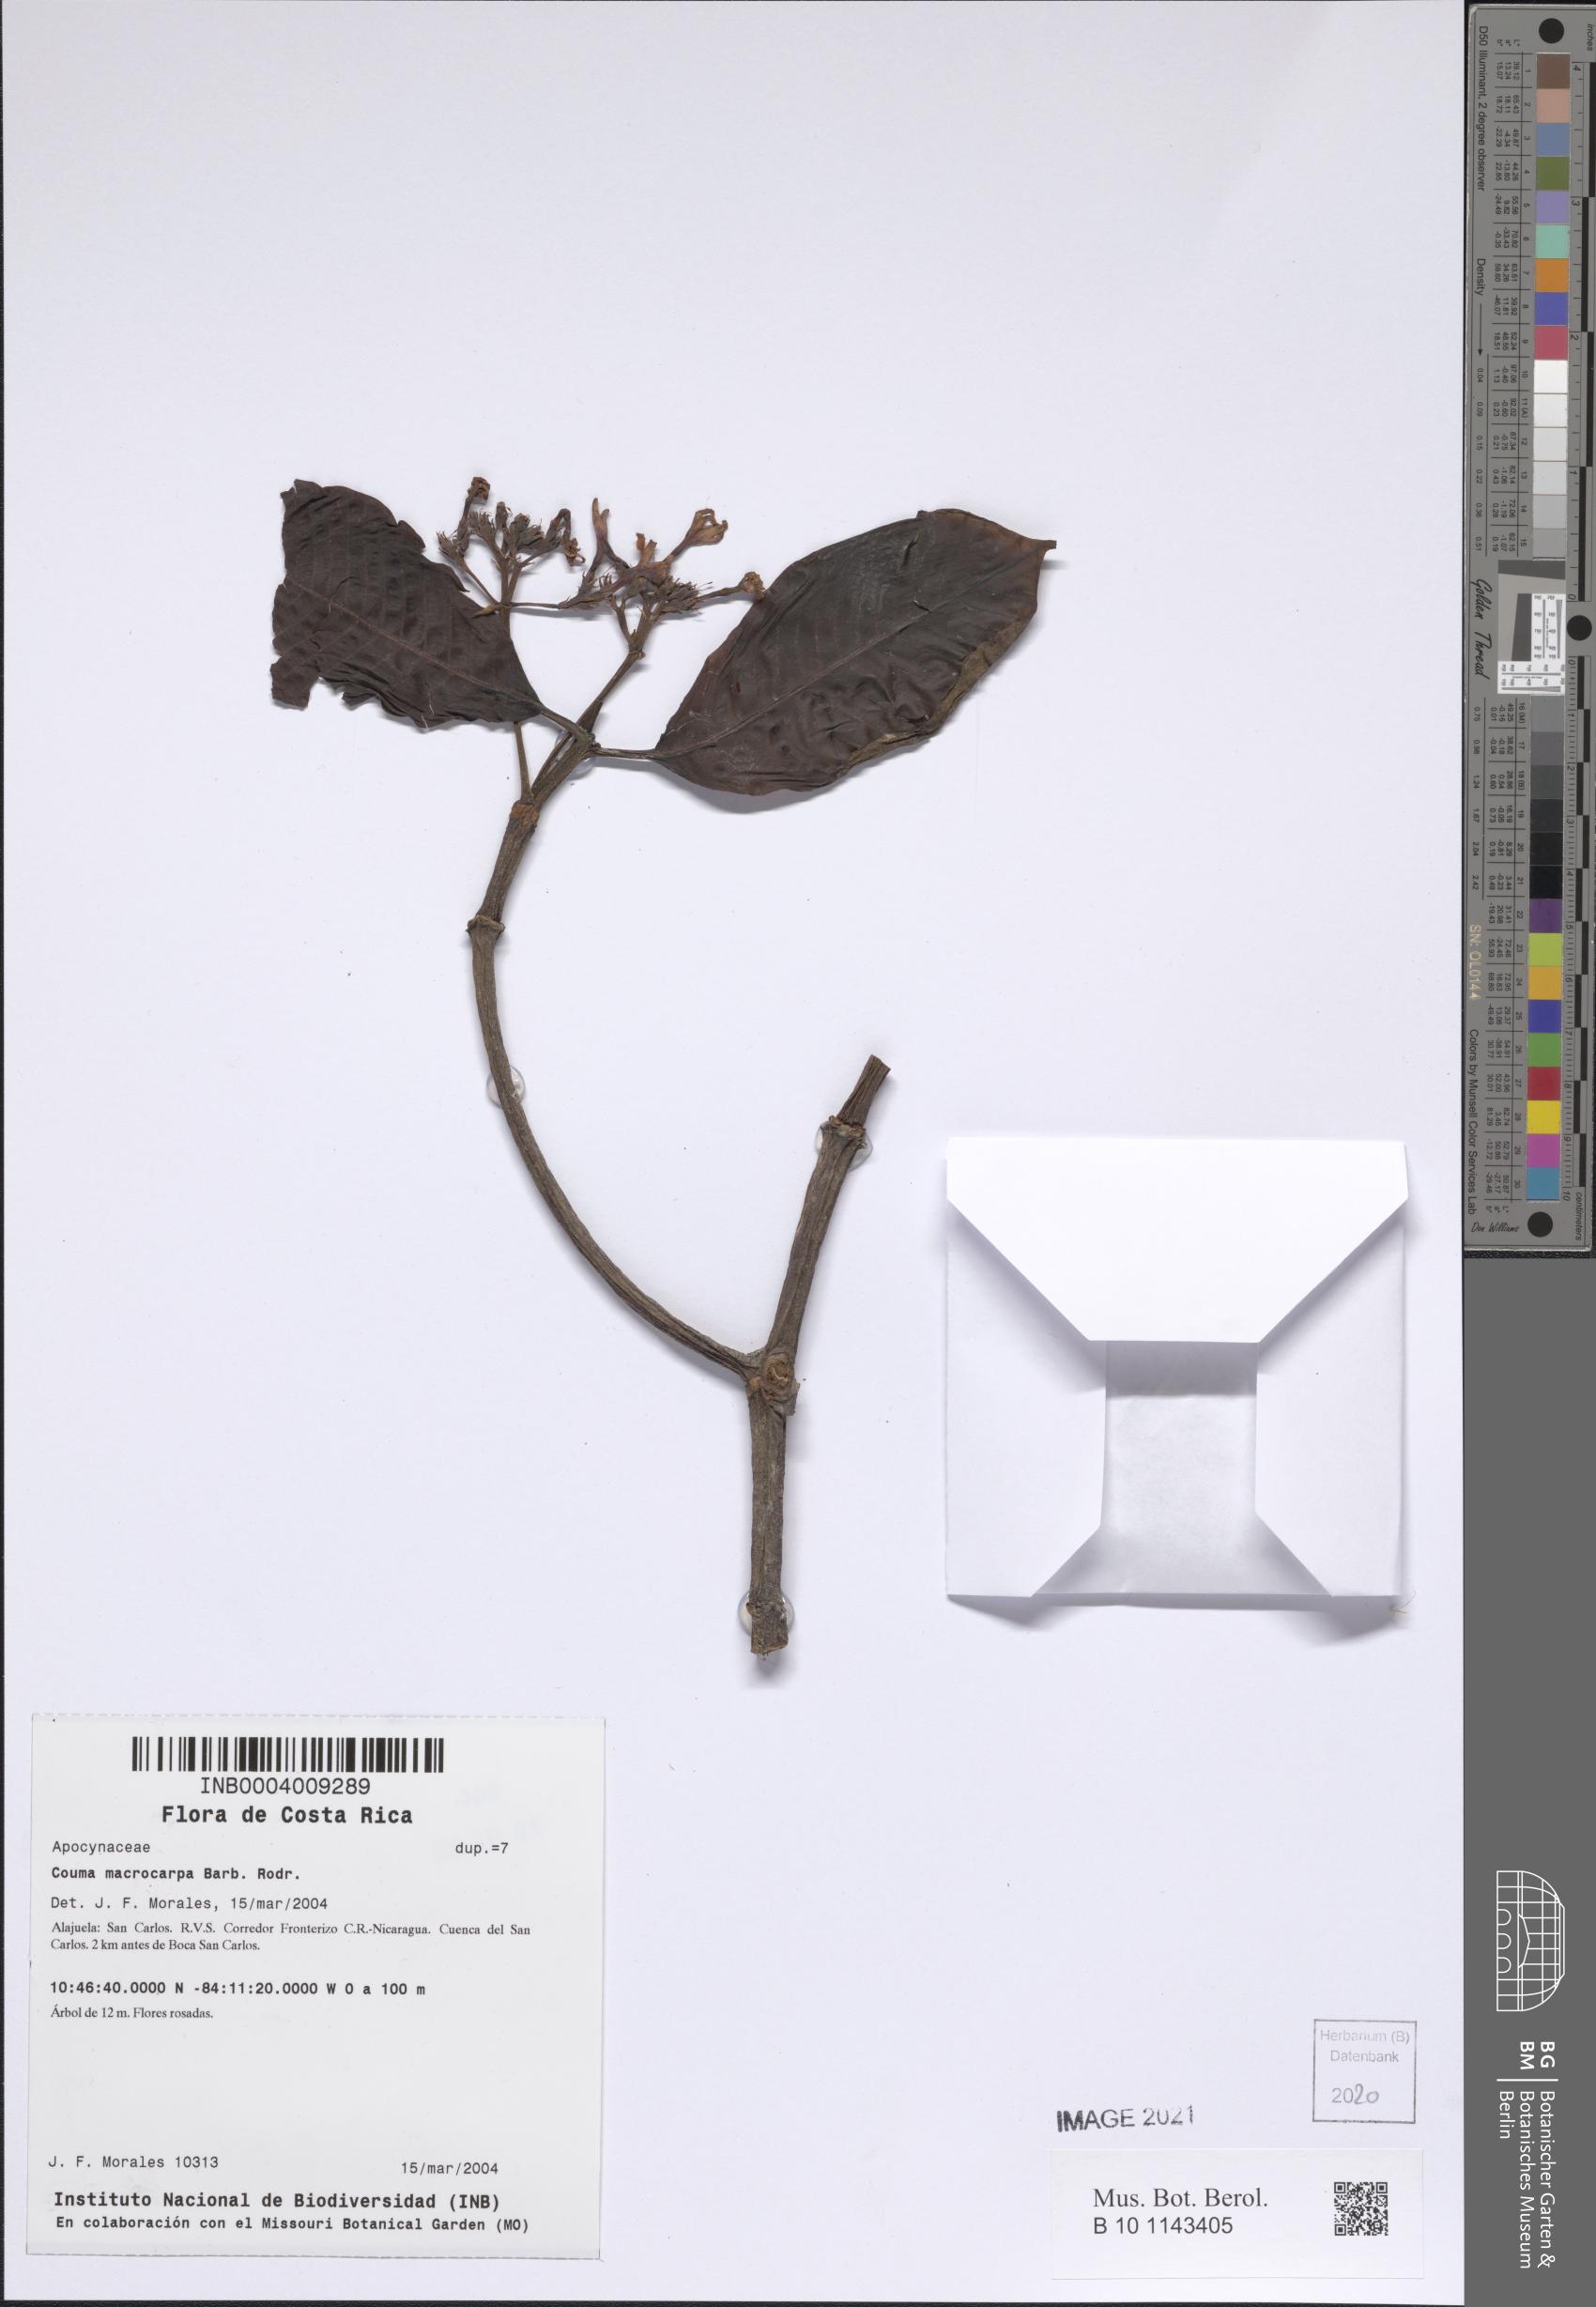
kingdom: Plantae
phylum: Tracheophyta
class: Magnoliopsida
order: Gentianales
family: Apocynaceae
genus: Couma
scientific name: Couma macrocarpa
